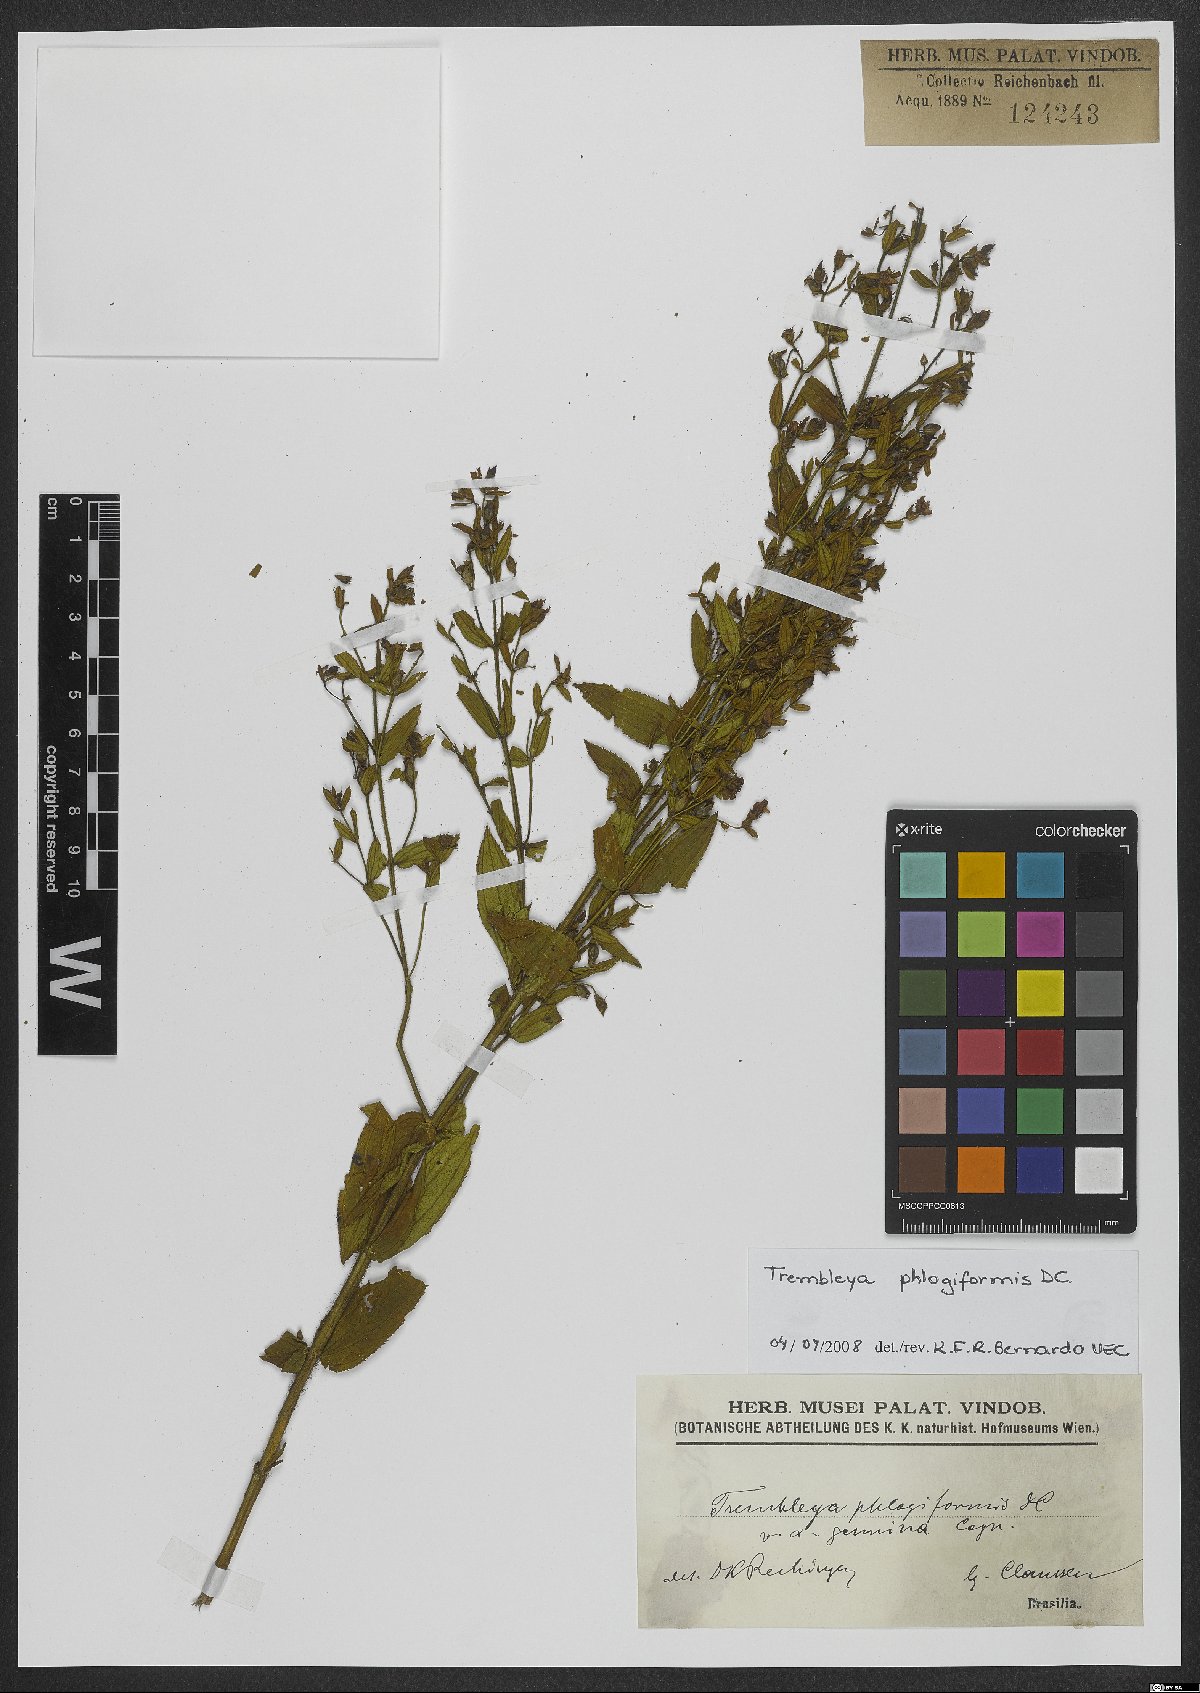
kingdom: Plantae
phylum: Tracheophyta
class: Magnoliopsida
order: Myrtales
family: Melastomataceae
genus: Microlicia
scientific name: Microlicia phlogiformis
